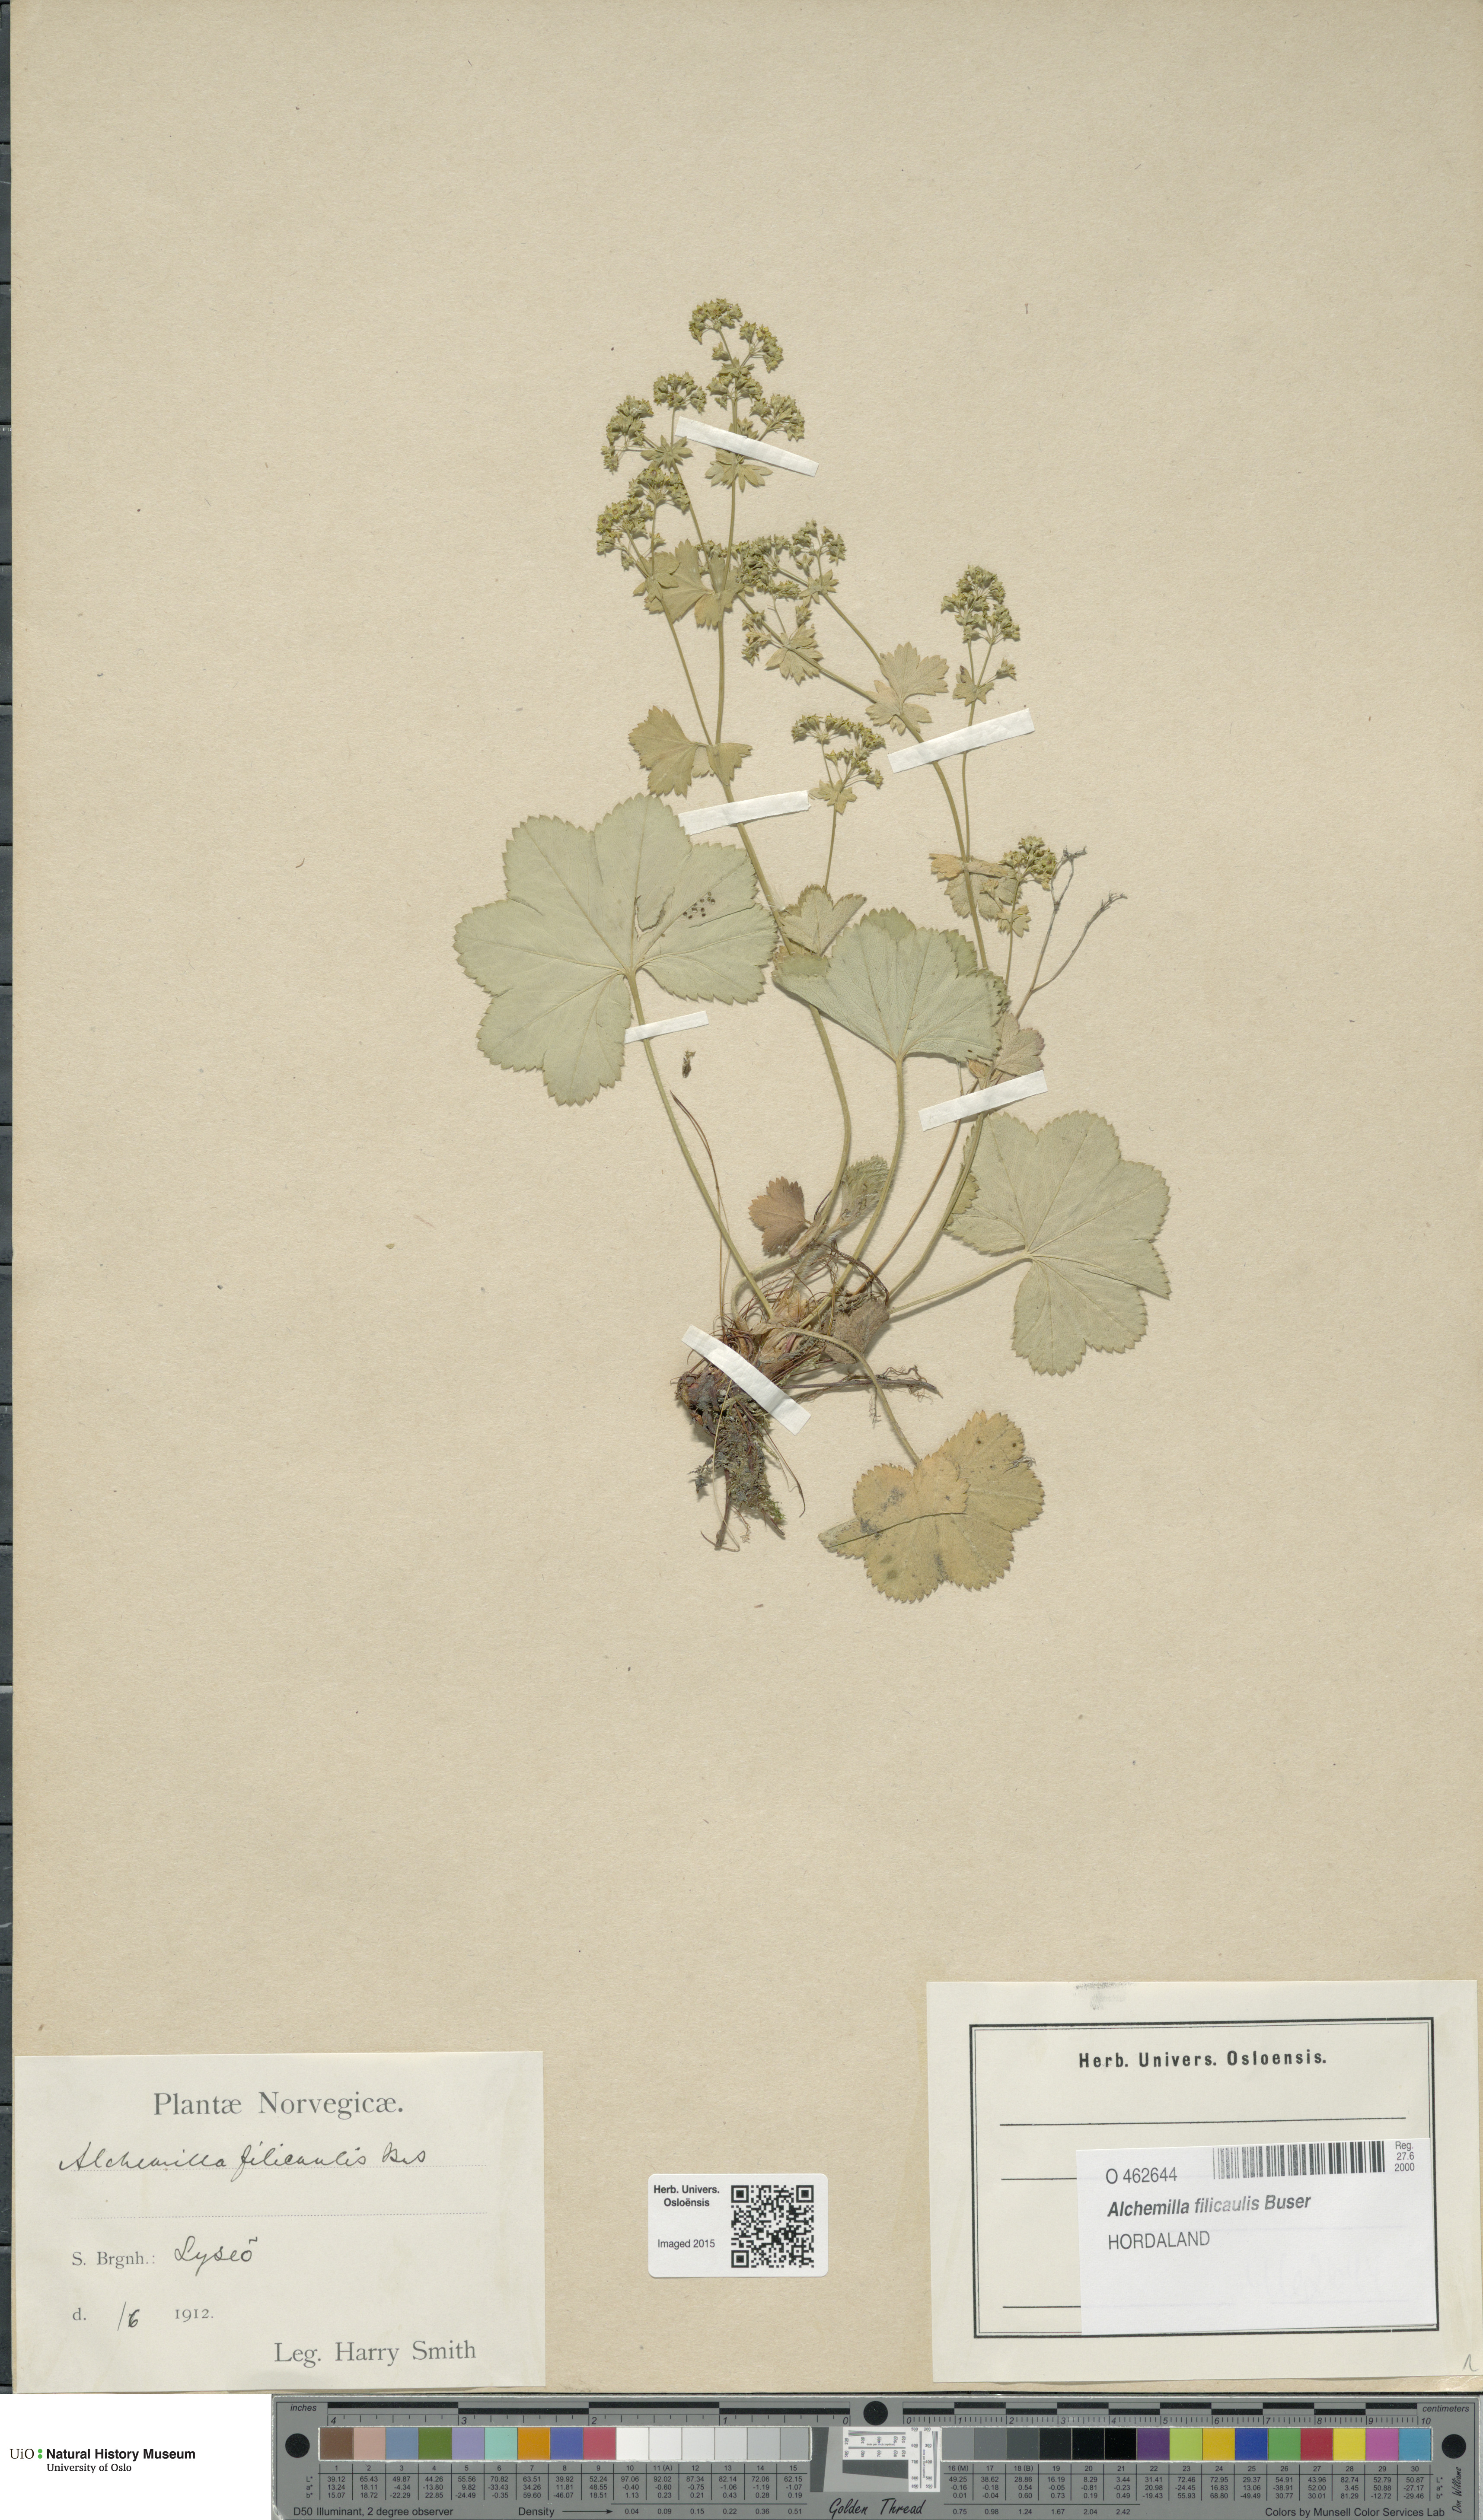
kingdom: Plantae
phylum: Tracheophyta
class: Magnoliopsida
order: Rosales
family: Rosaceae
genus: Alchemilla
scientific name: Alchemilla filicaulis
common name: Hairy lady's-mantle
